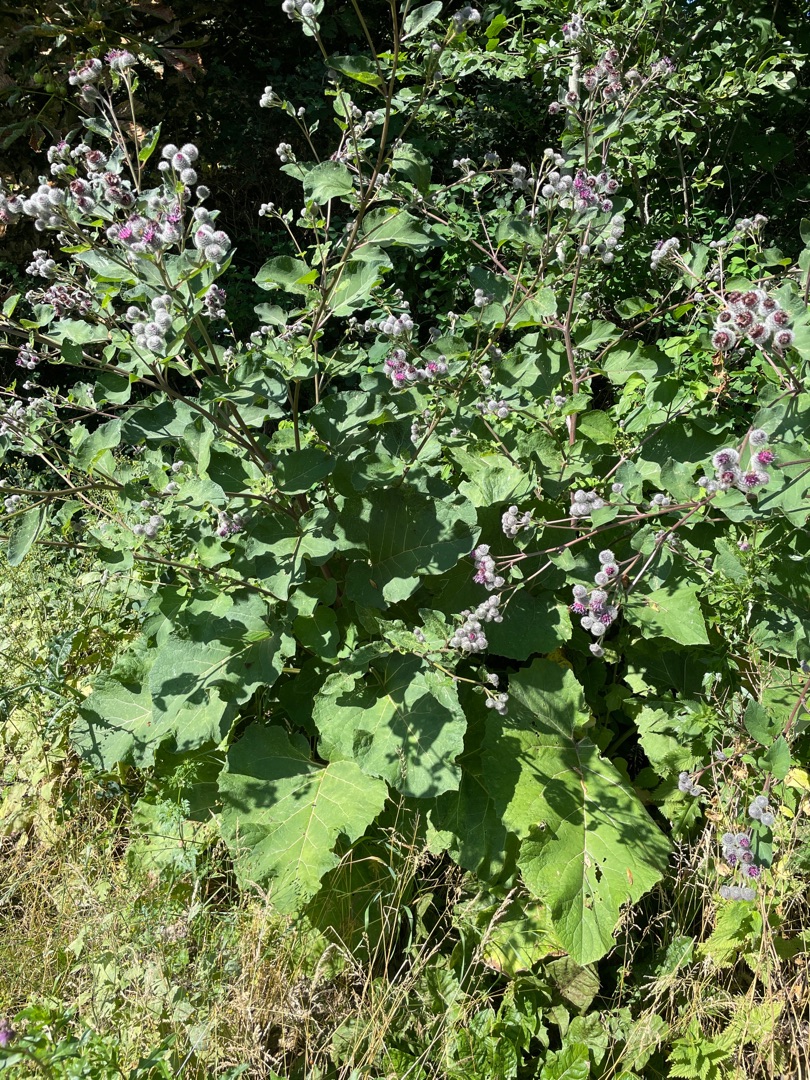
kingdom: Plantae
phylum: Tracheophyta
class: Magnoliopsida
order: Asterales
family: Asteraceae
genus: Arctium
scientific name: Arctium tomentosum
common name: Filtet burre
